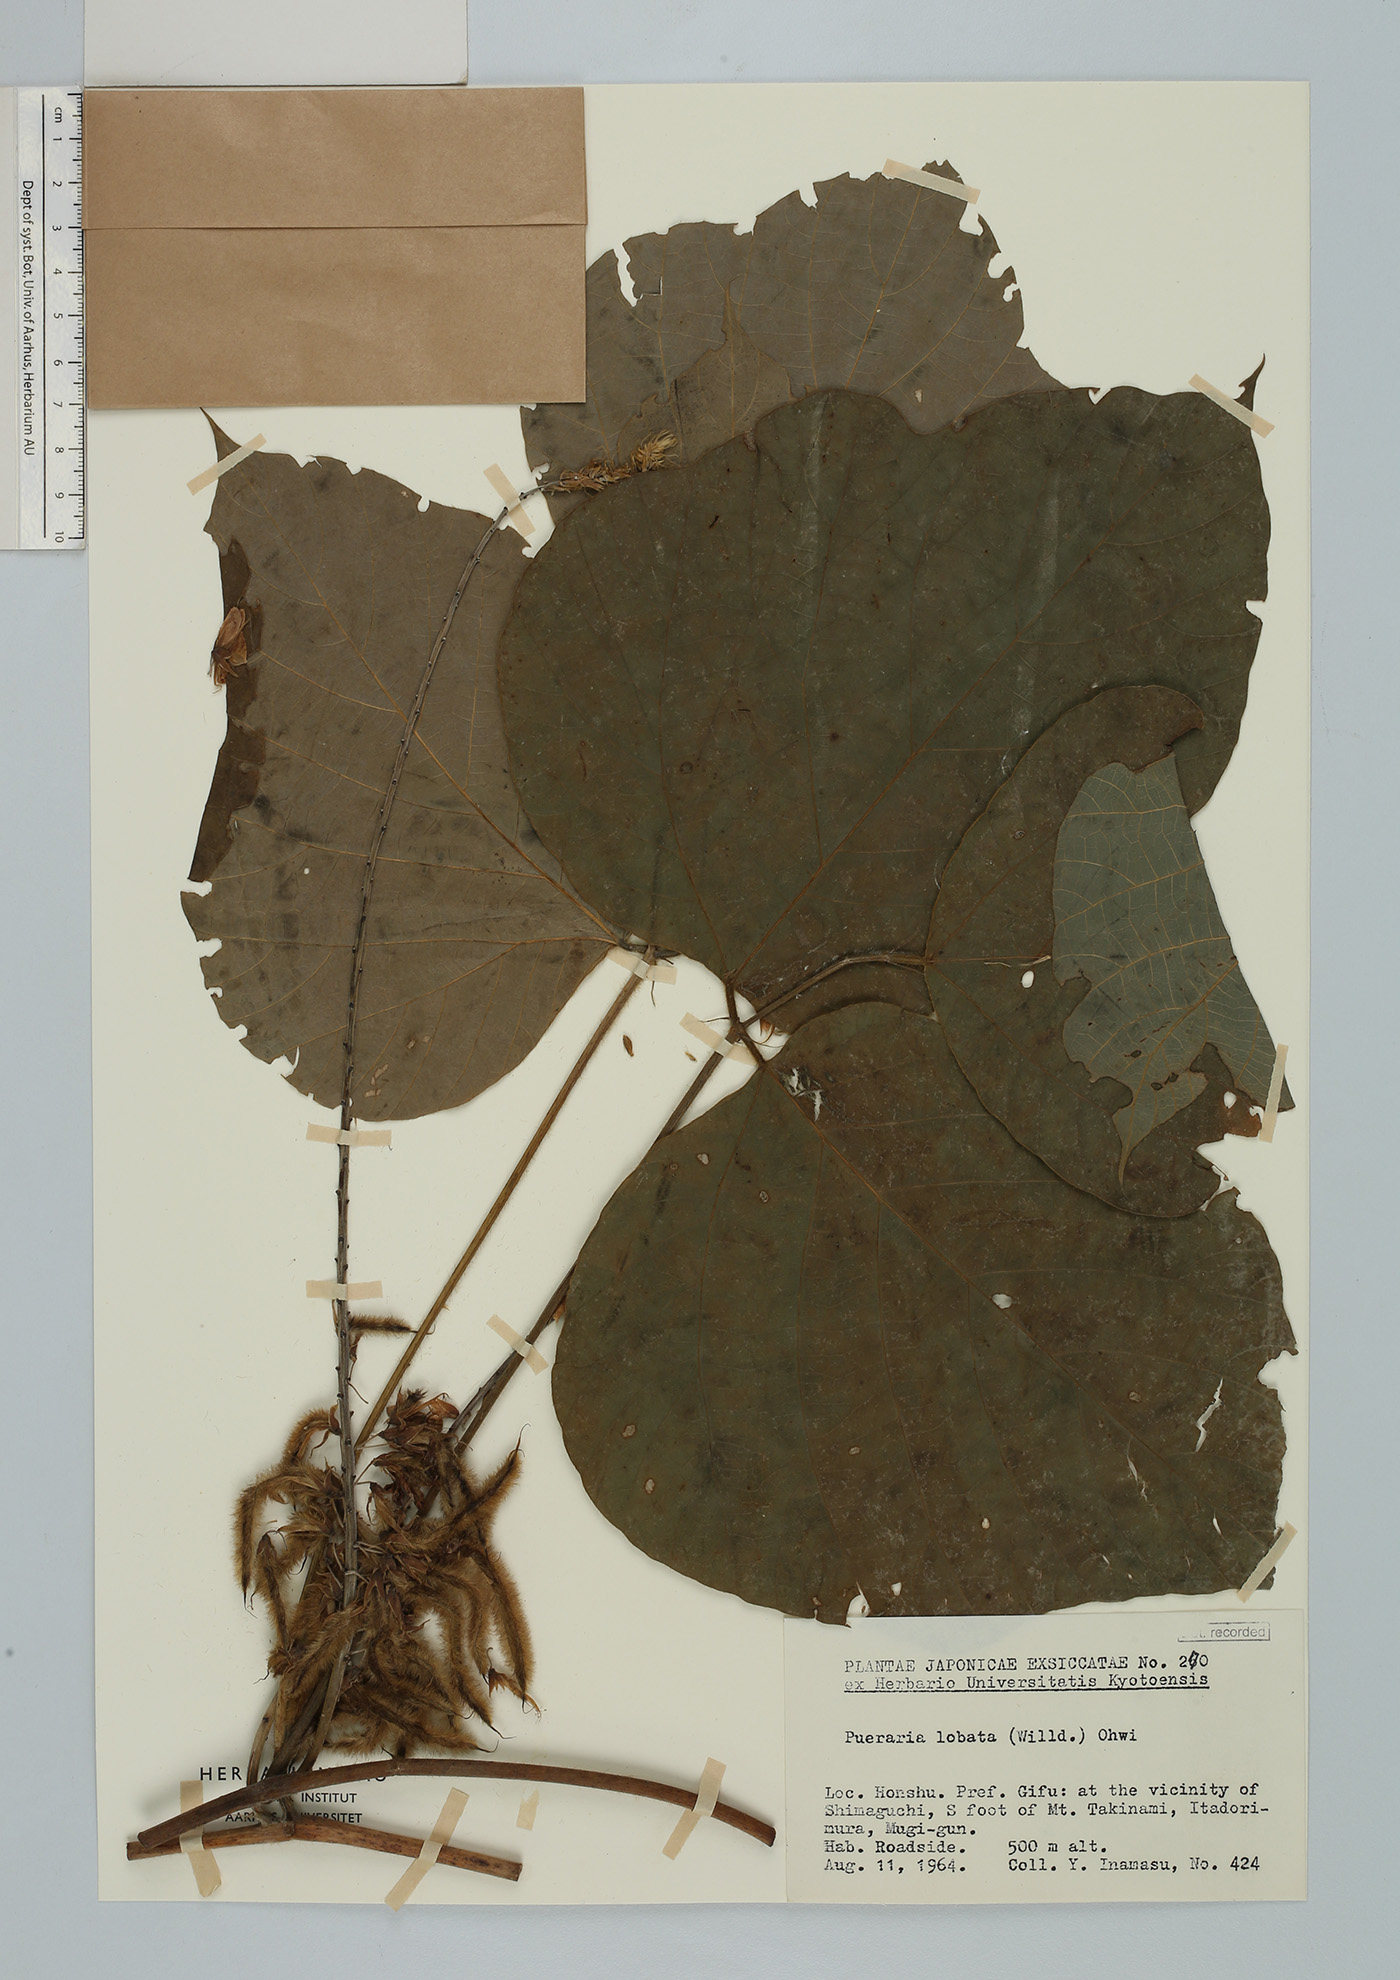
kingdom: Plantae
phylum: Tracheophyta
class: Magnoliopsida
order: Fabales
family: Fabaceae
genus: Pueraria
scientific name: Pueraria montana
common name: Kudzu
